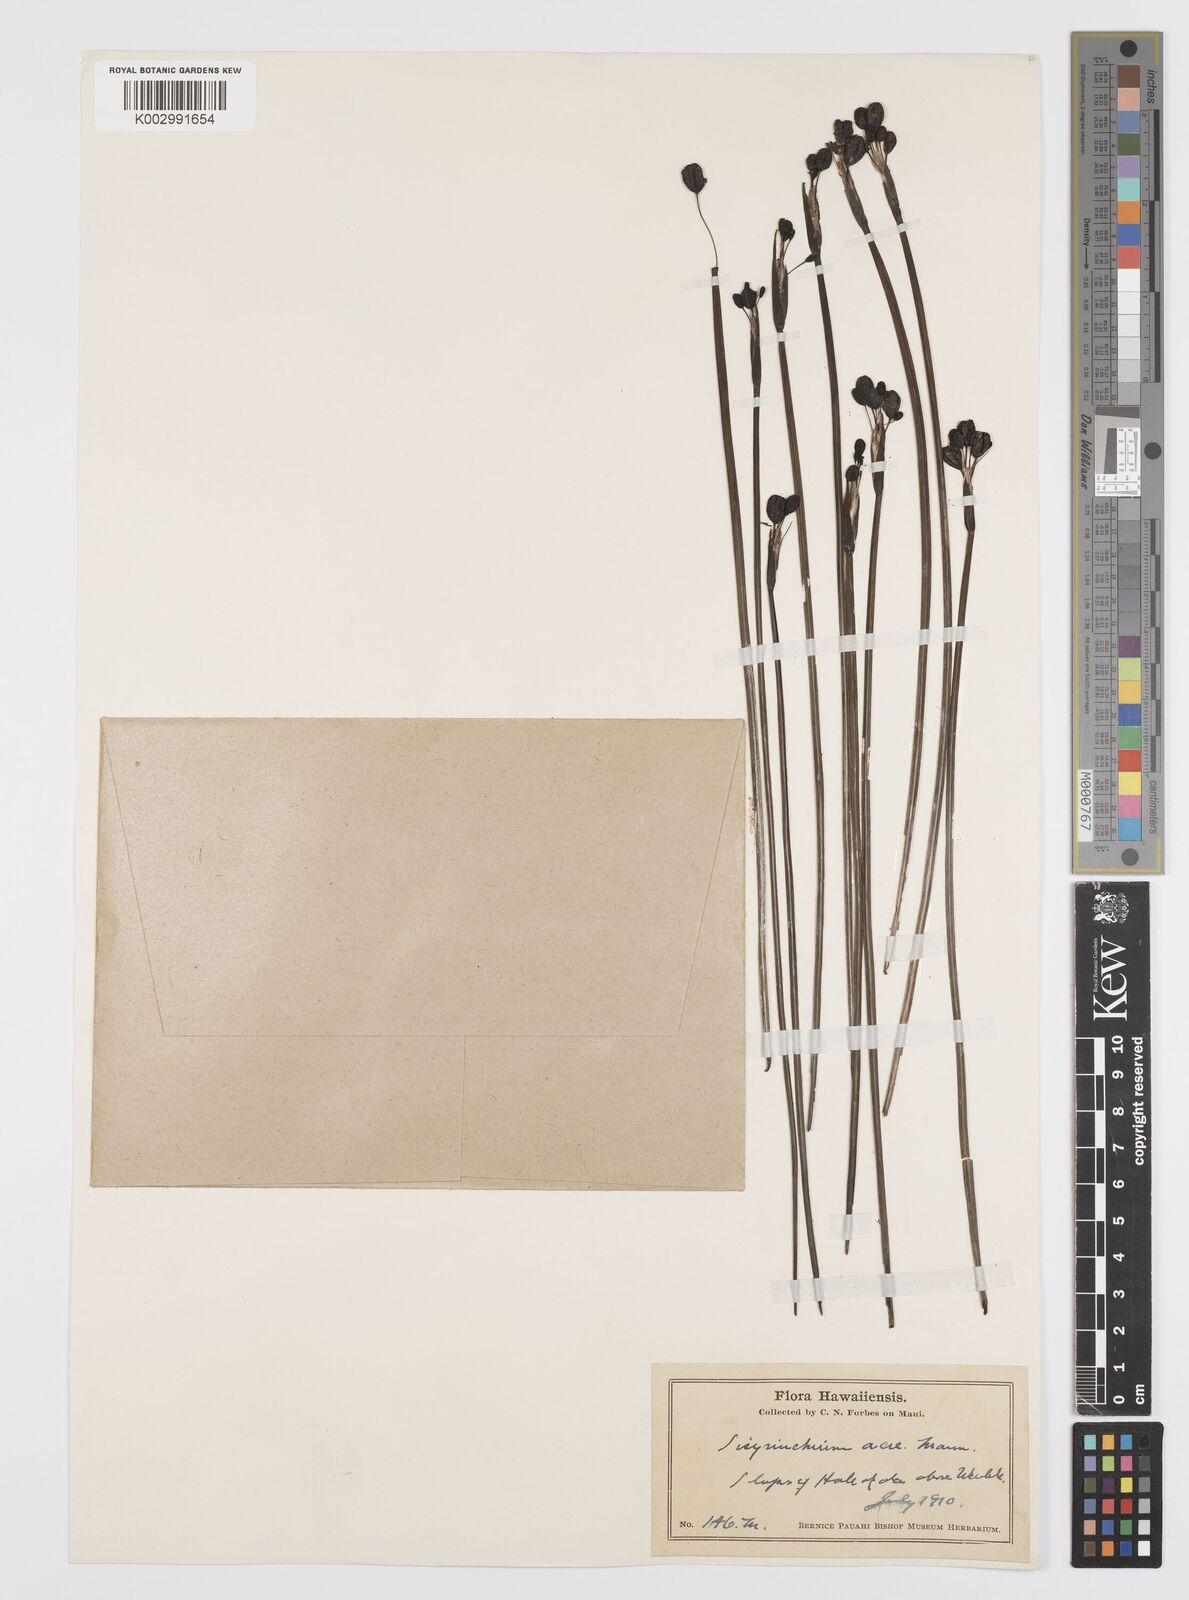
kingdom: Plantae
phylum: Tracheophyta
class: Liliopsida
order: Asparagales
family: Iridaceae
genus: Sisyrinchium
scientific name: Sisyrinchium acre
